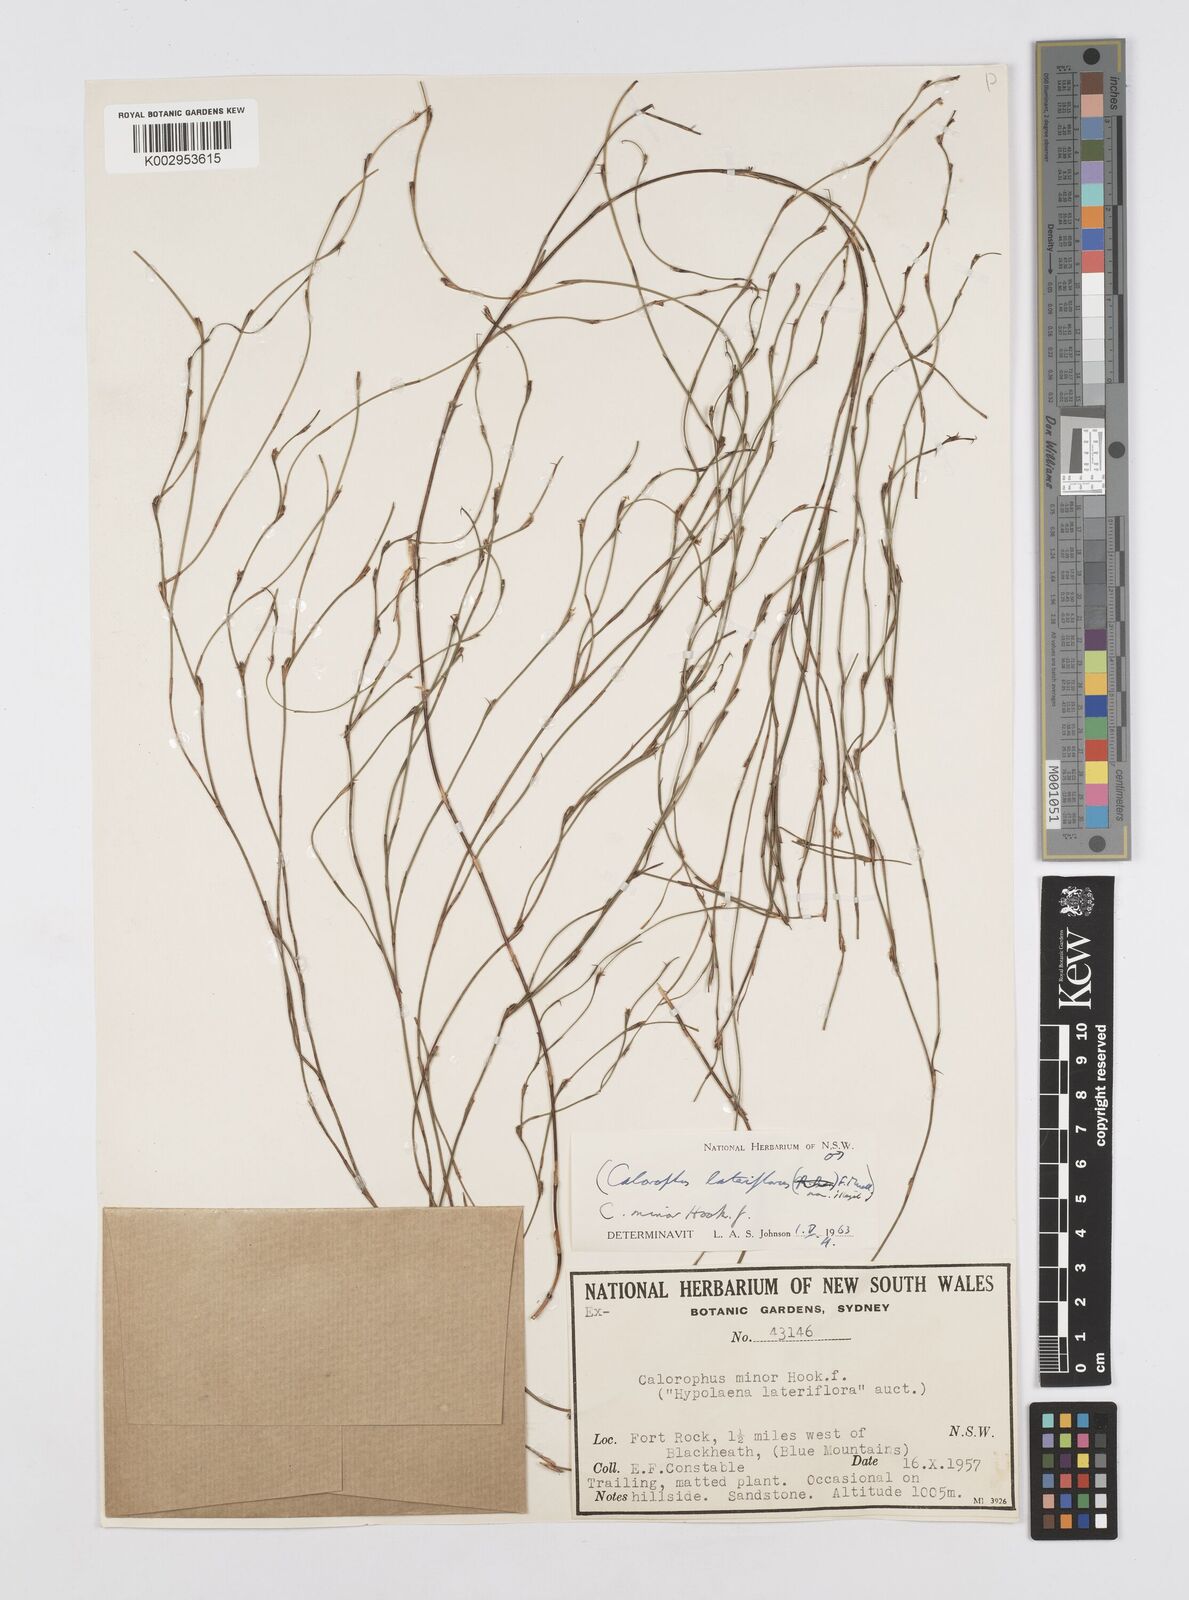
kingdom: Plantae
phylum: Tracheophyta
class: Liliopsida
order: Poales
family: Restionaceae
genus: Empodisma
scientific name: Empodisma minus
